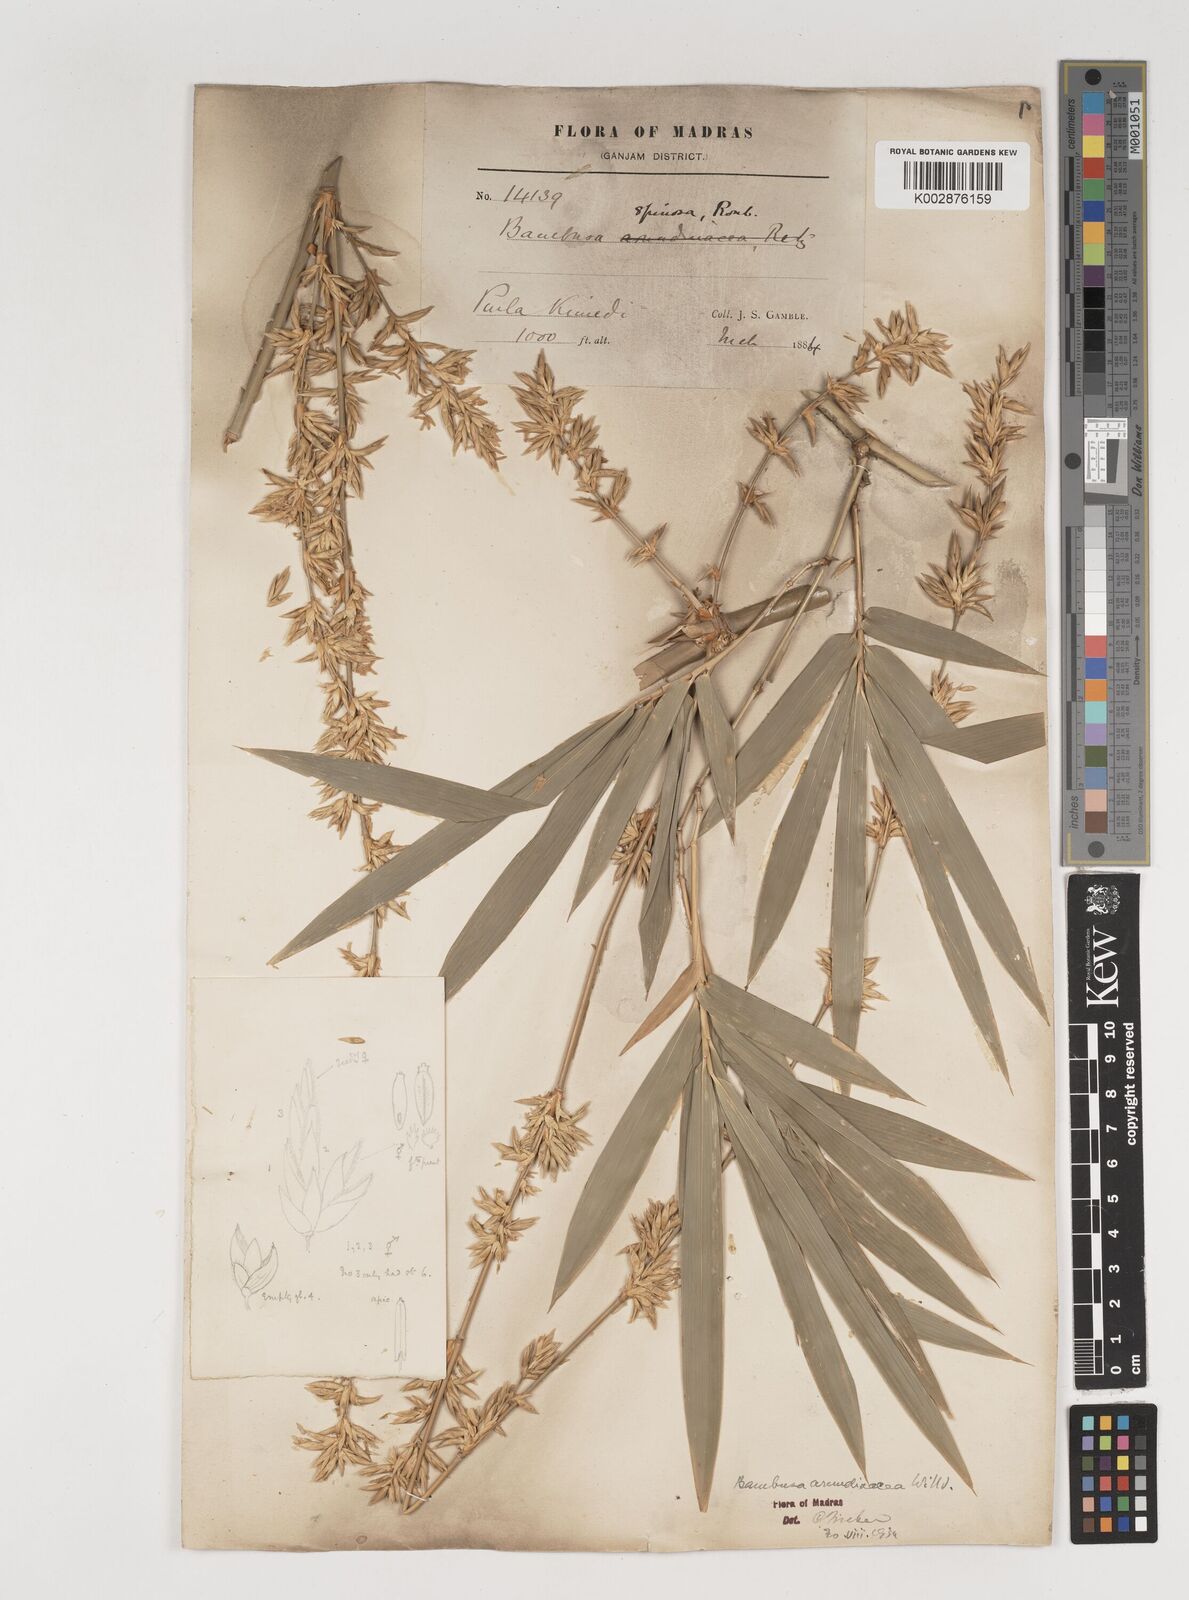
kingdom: Plantae
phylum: Tracheophyta
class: Liliopsida
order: Poales
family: Poaceae
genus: Bambusa
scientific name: Bambusa bambos
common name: Indian thorny bamboo
